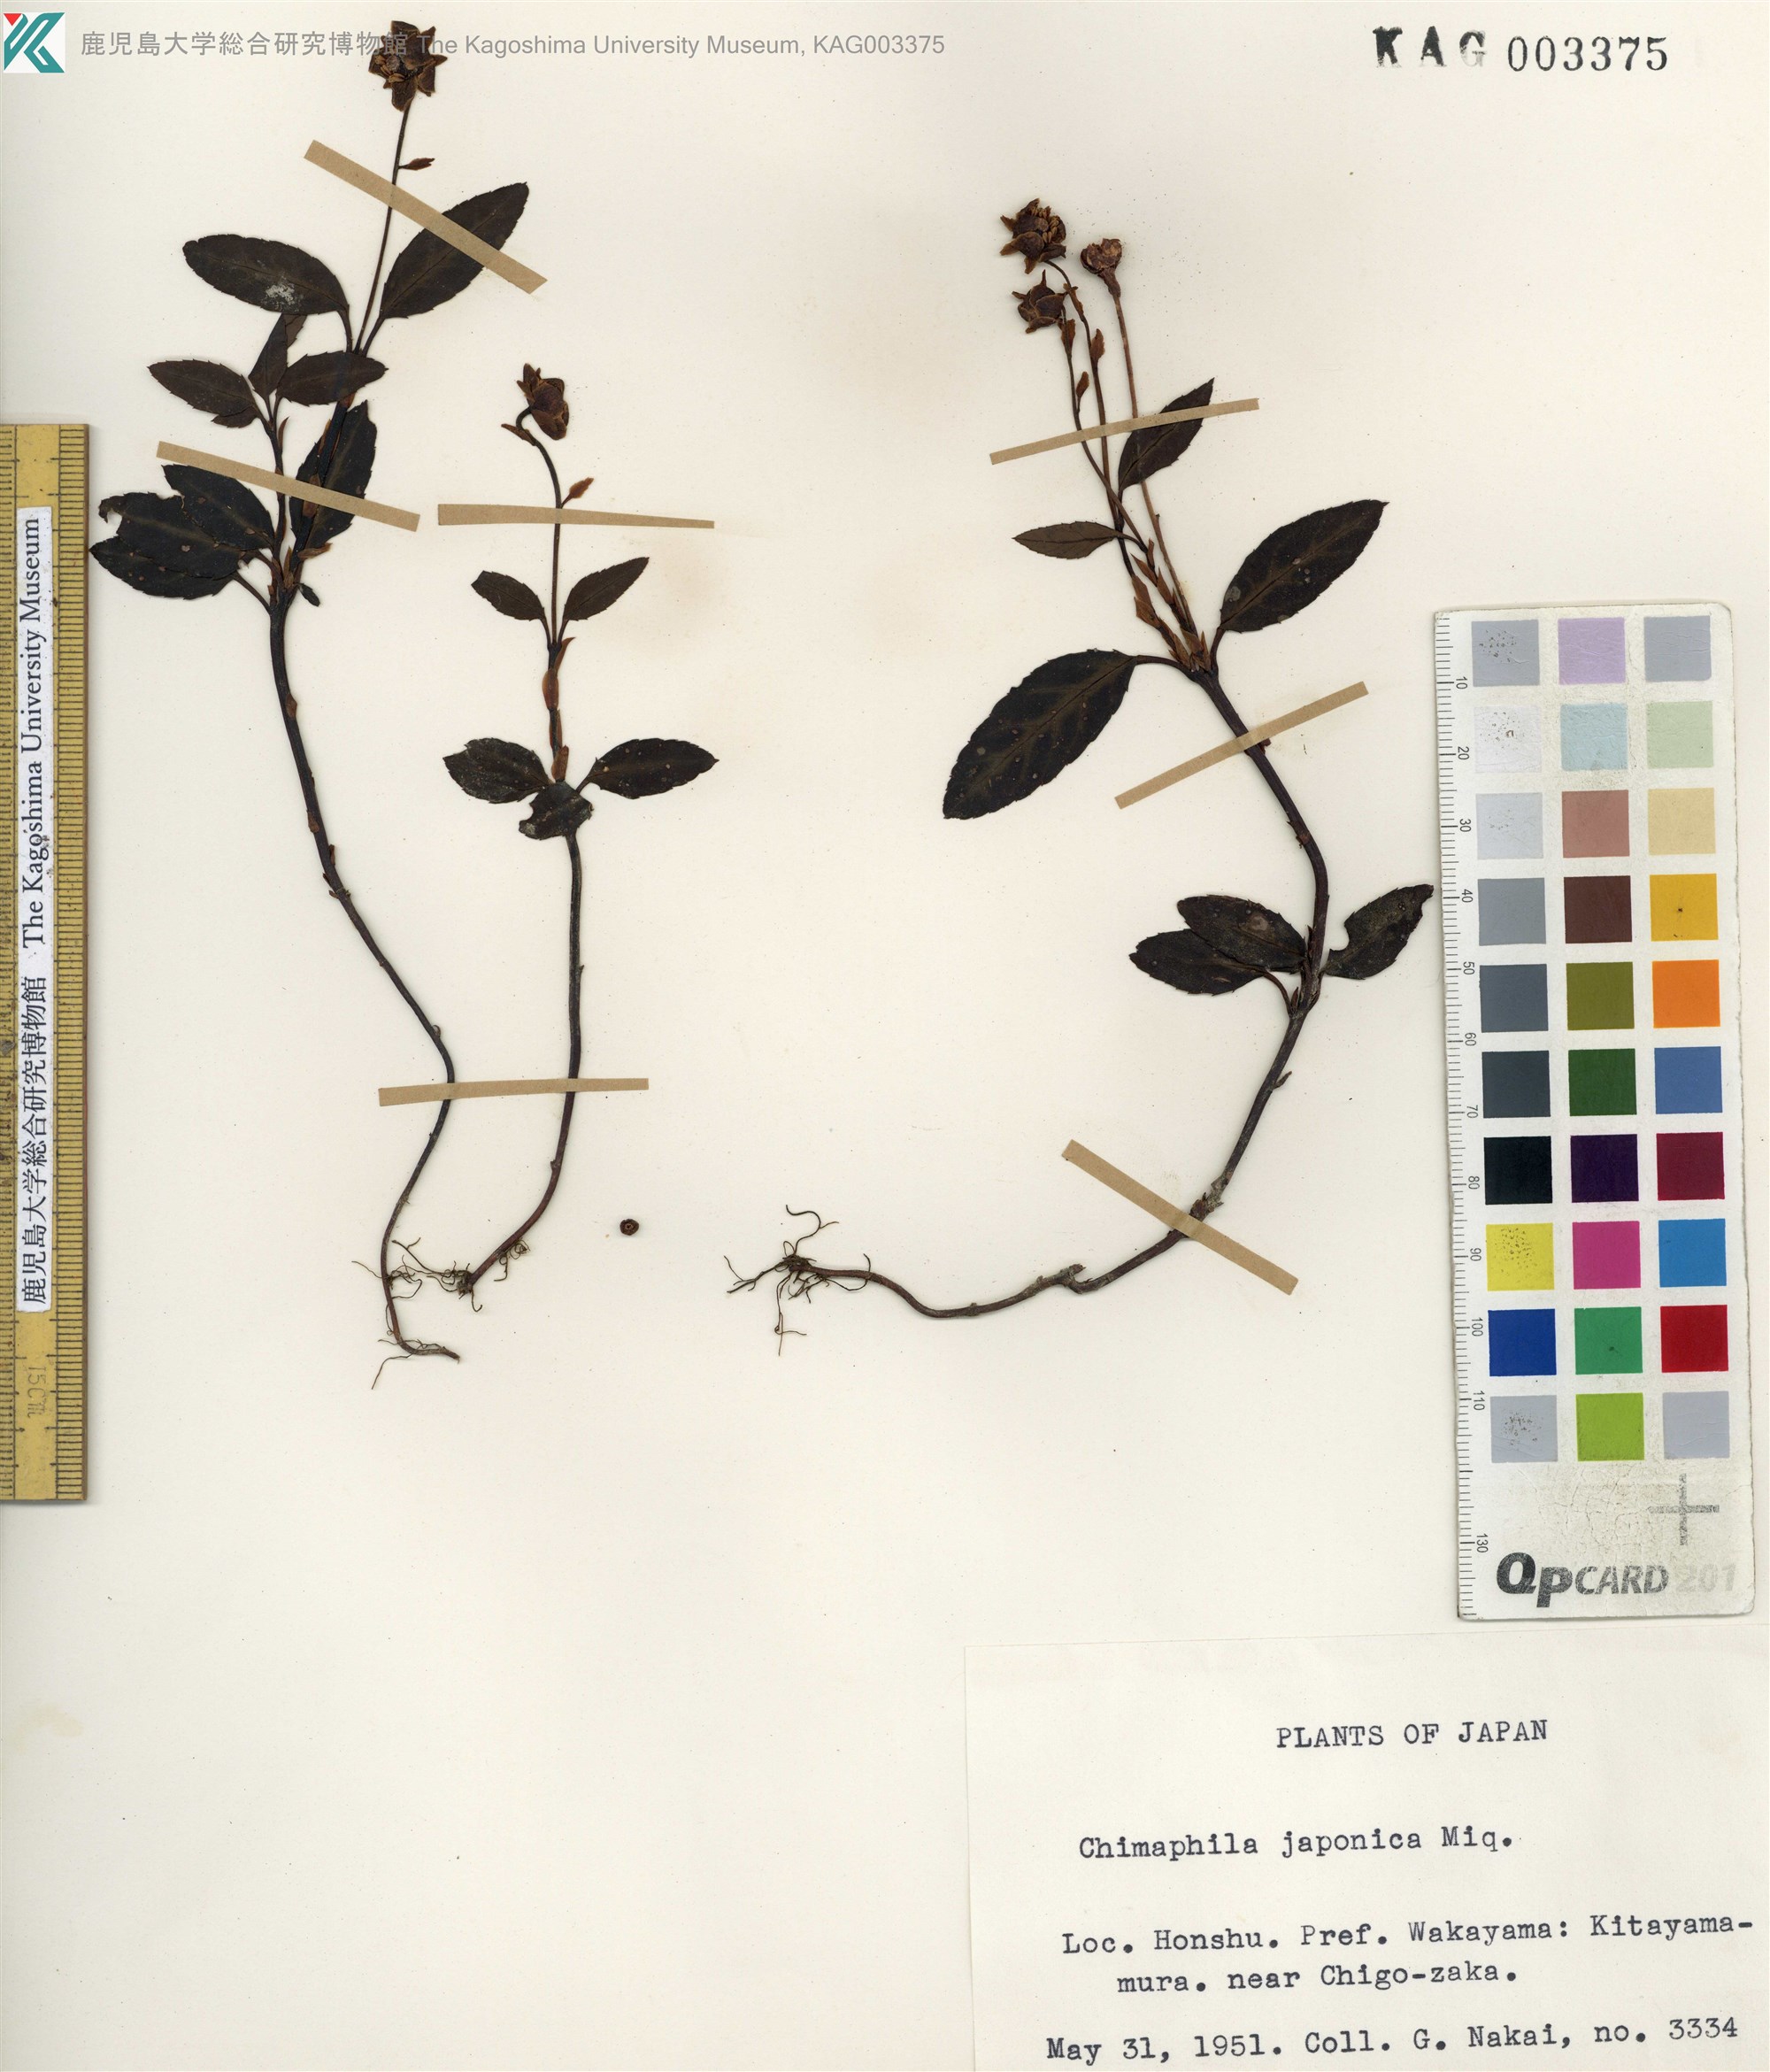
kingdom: Plantae
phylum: Tracheophyta
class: Magnoliopsida
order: Ericales
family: Ericaceae
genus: Chimaphila
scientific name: Chimaphila japonica
